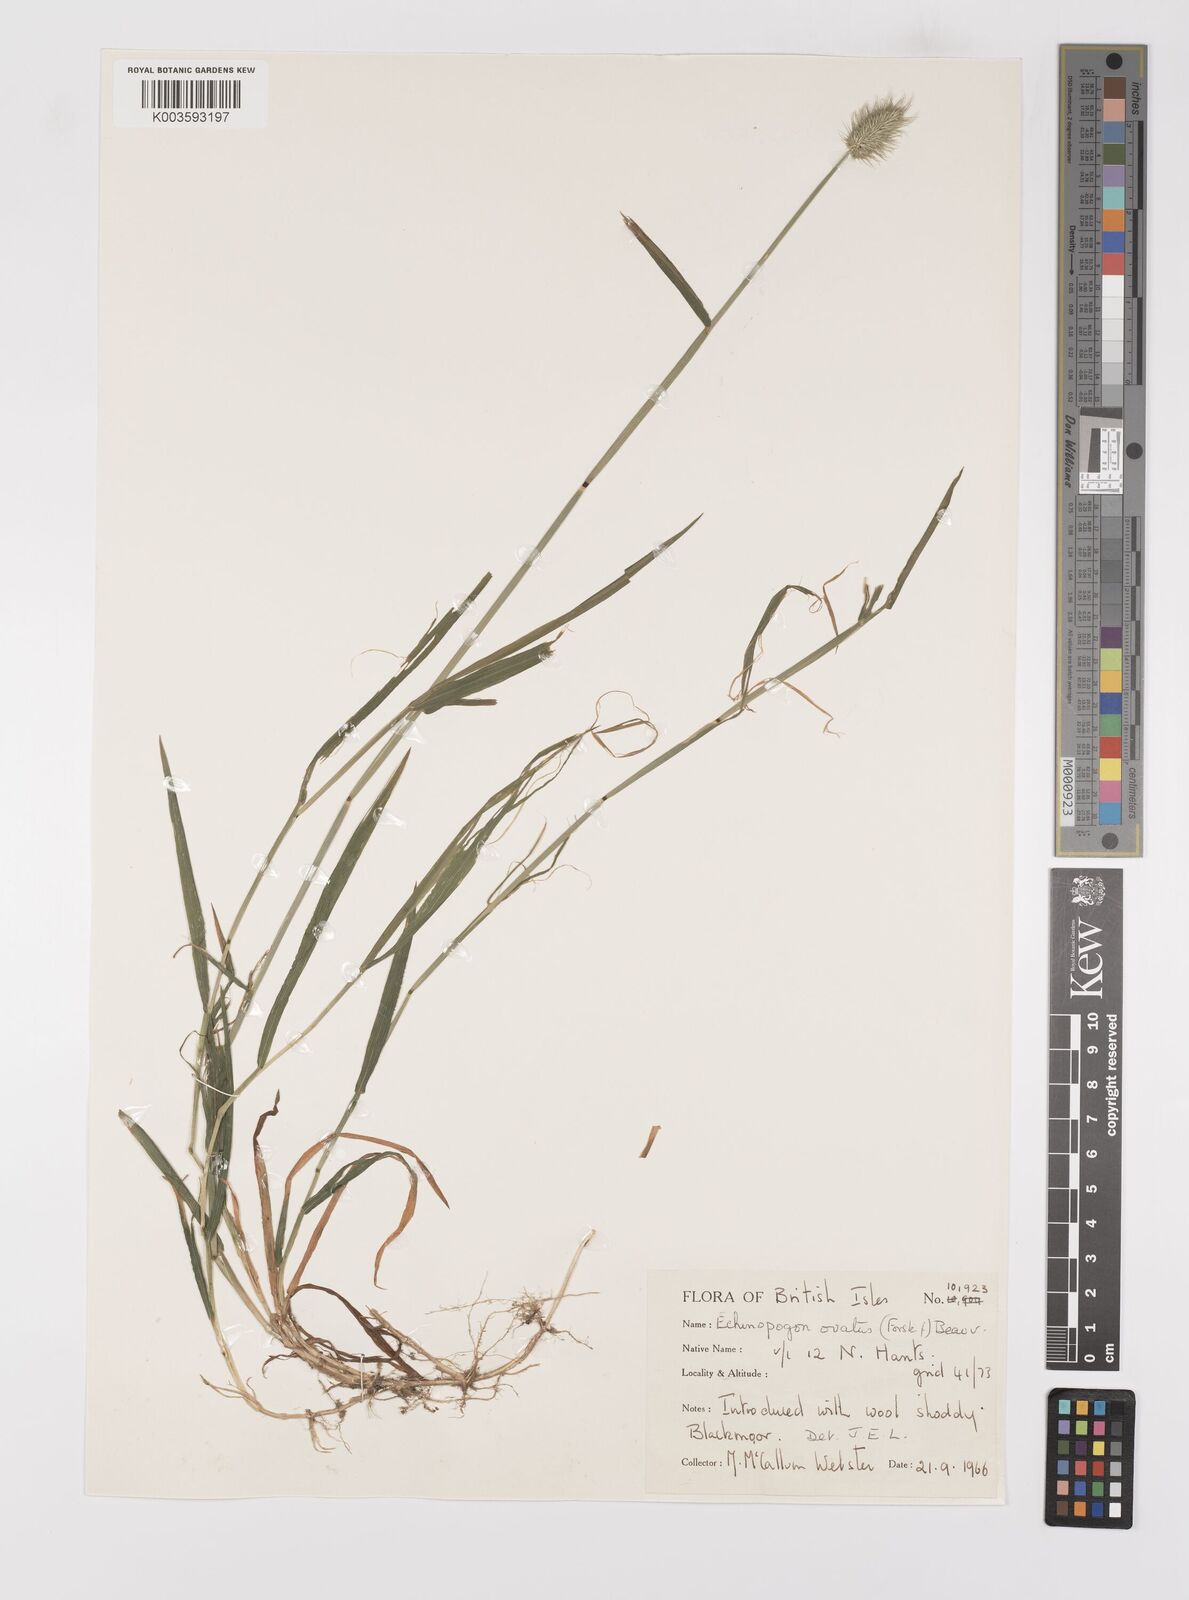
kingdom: Plantae
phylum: Tracheophyta
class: Liliopsida
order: Poales
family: Poaceae
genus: Echinopogon
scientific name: Echinopogon ovatus
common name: Hedgehog-grass
